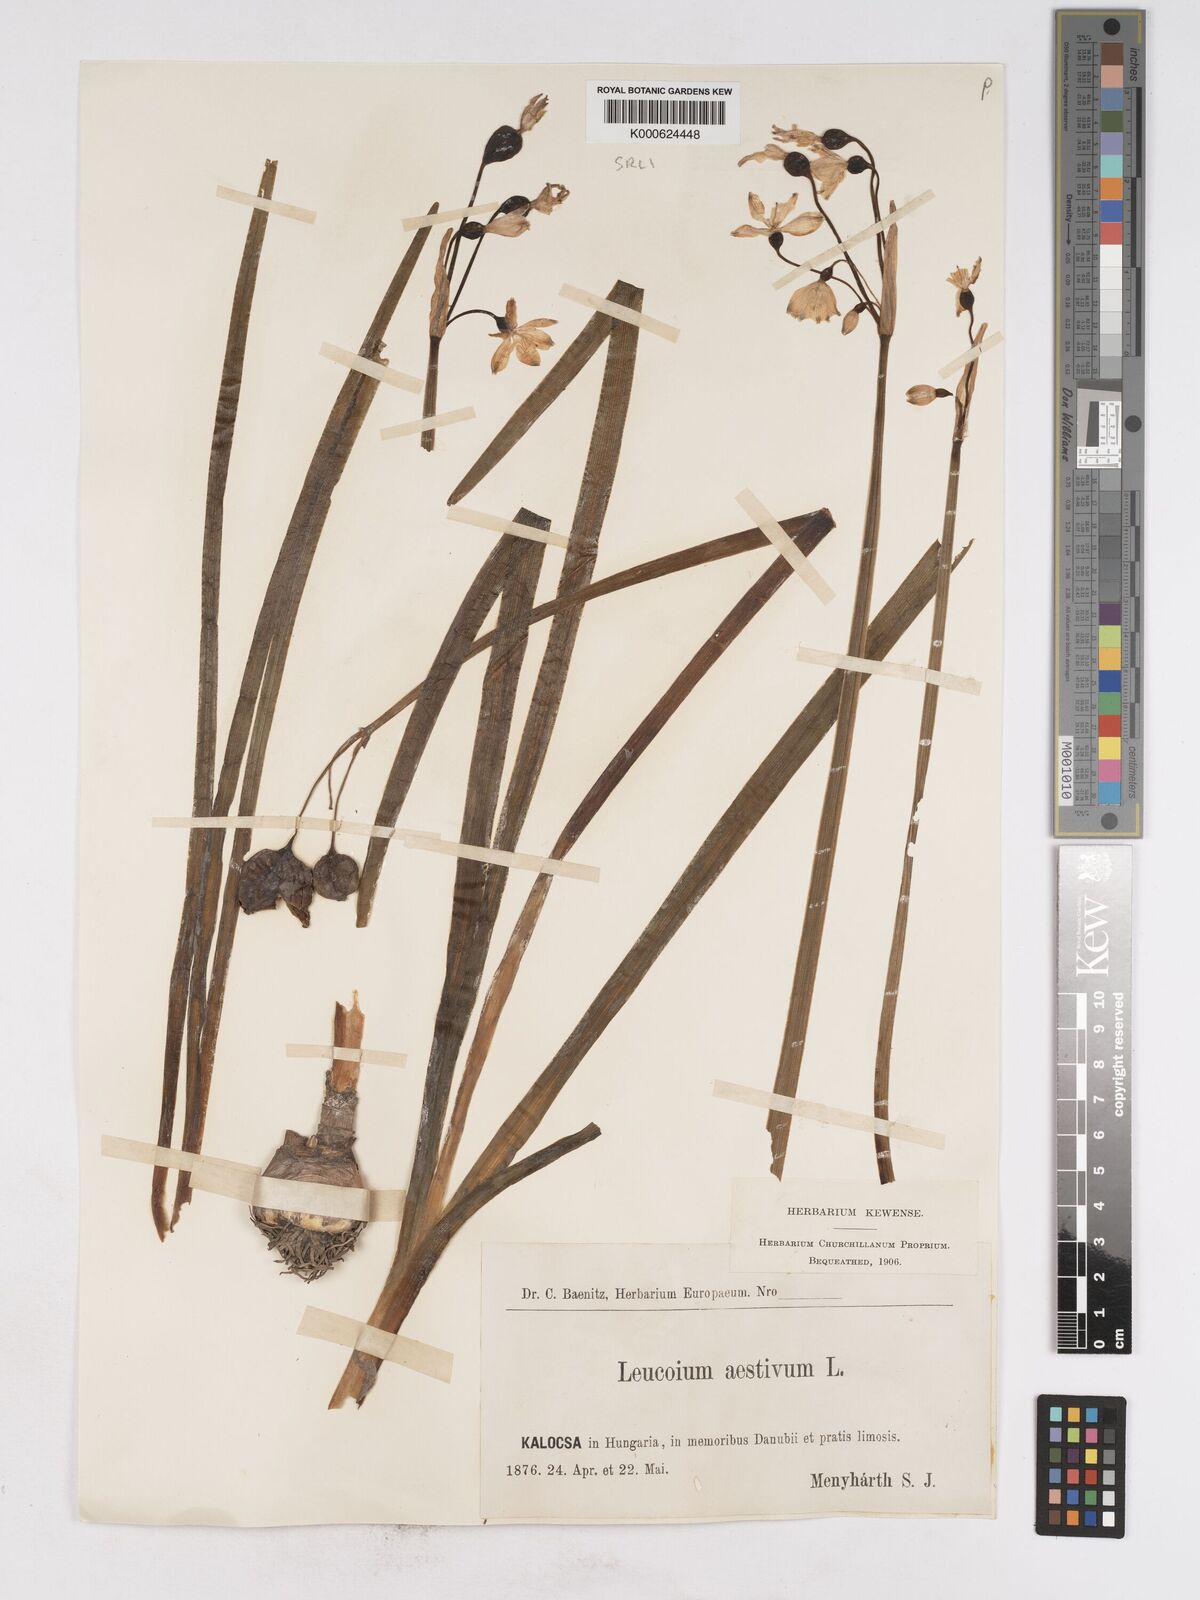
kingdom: Plantae
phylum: Tracheophyta
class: Liliopsida
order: Asparagales
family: Amaryllidaceae
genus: Leucojum
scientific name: Leucojum aestivum
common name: Summer snowflake
